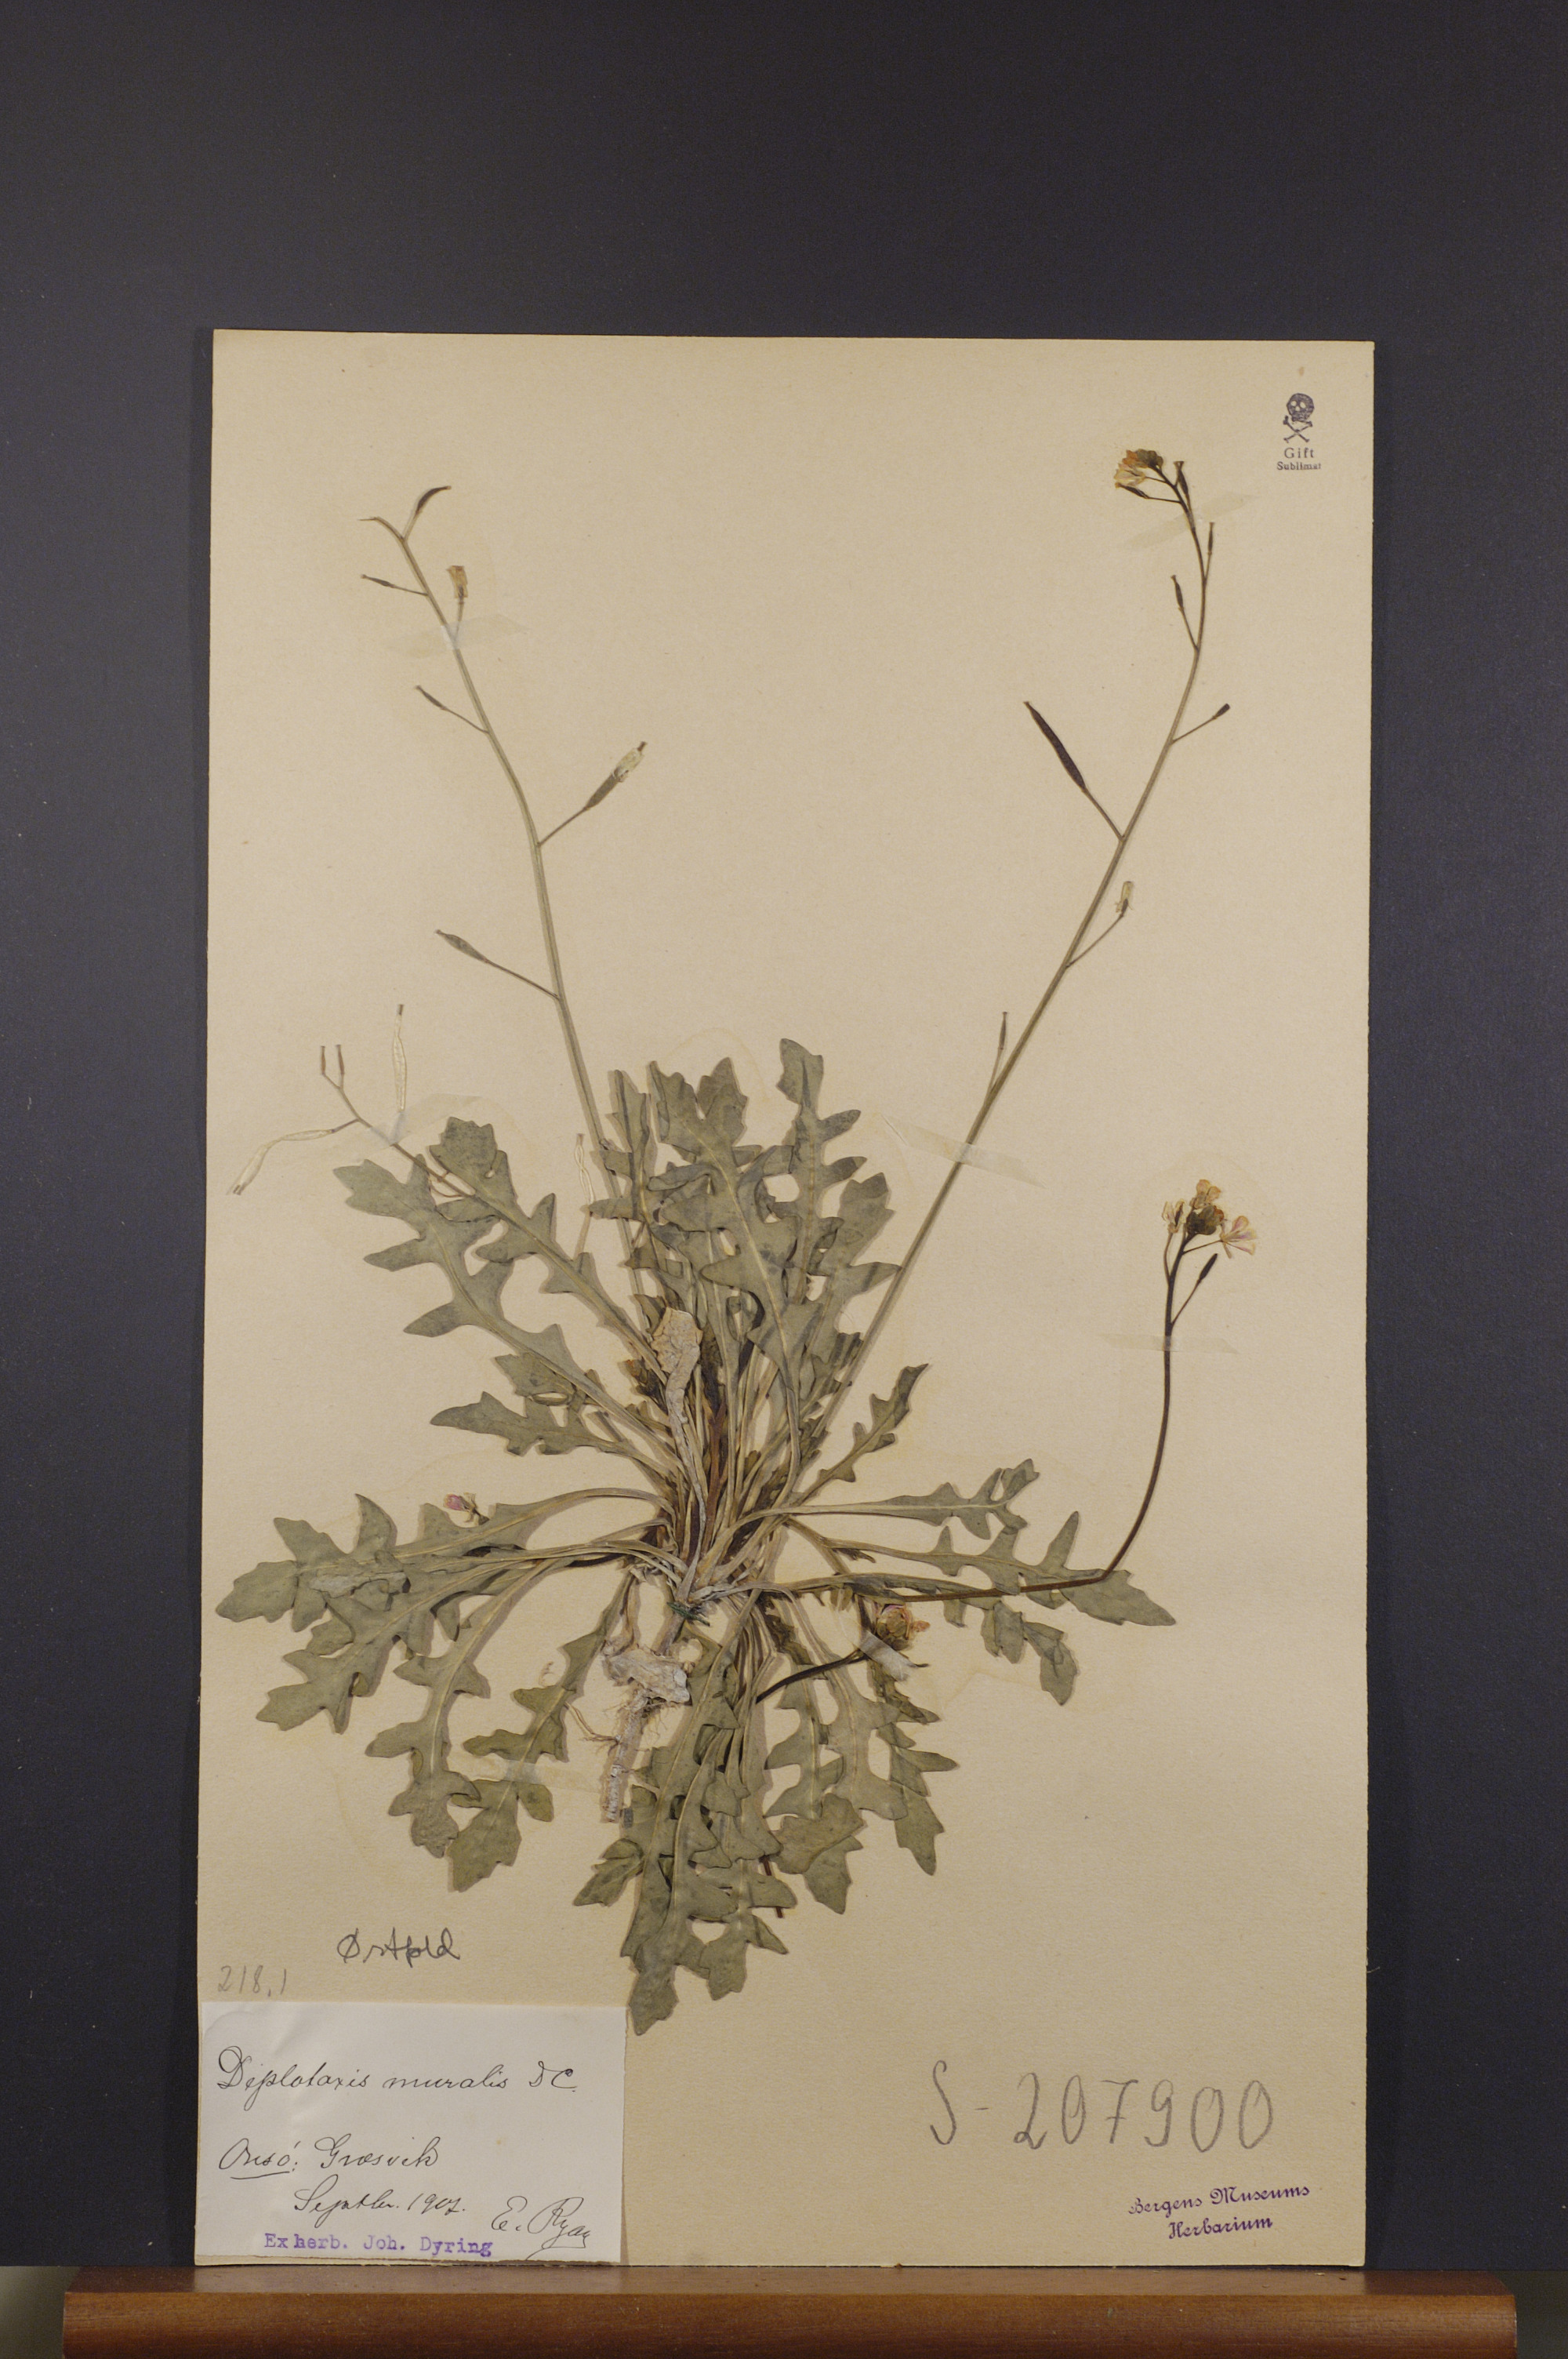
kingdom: Plantae
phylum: Tracheophyta
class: Magnoliopsida
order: Brassicales
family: Brassicaceae
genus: Diplotaxis
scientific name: Diplotaxis muralis
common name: Annual wall-rocket
